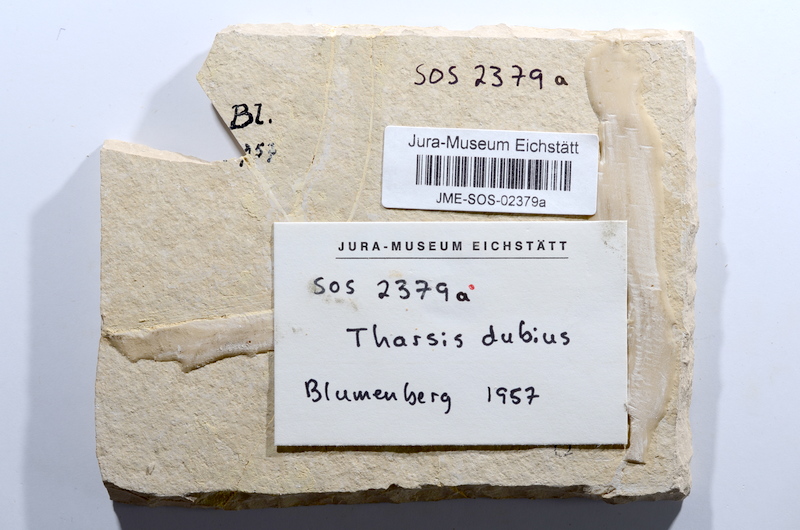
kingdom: Animalia
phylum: Chordata
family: Ascalaboidae
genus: Tharsis
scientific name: Tharsis dubius
